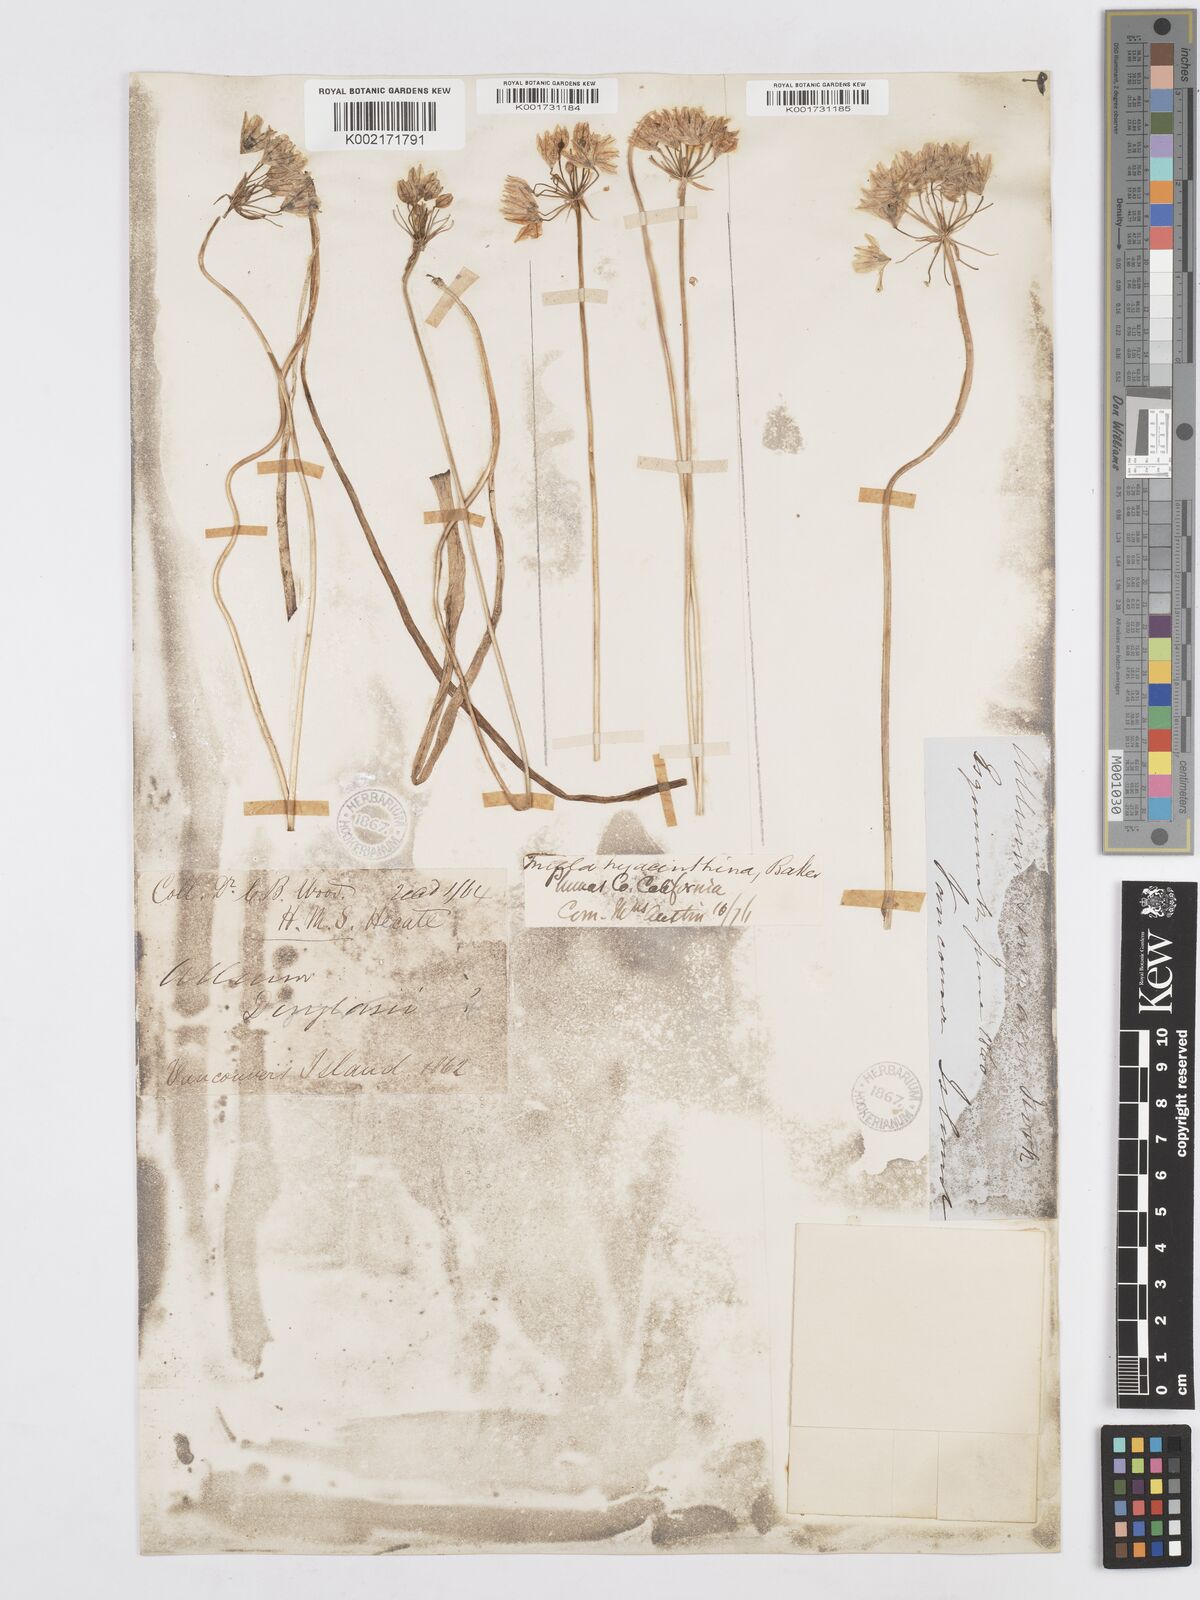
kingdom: Plantae
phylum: Tracheophyta
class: Liliopsida
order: Asparagales
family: Asparagaceae
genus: Triteleia
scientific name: Triteleia hyacinthina
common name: White brodiaea
